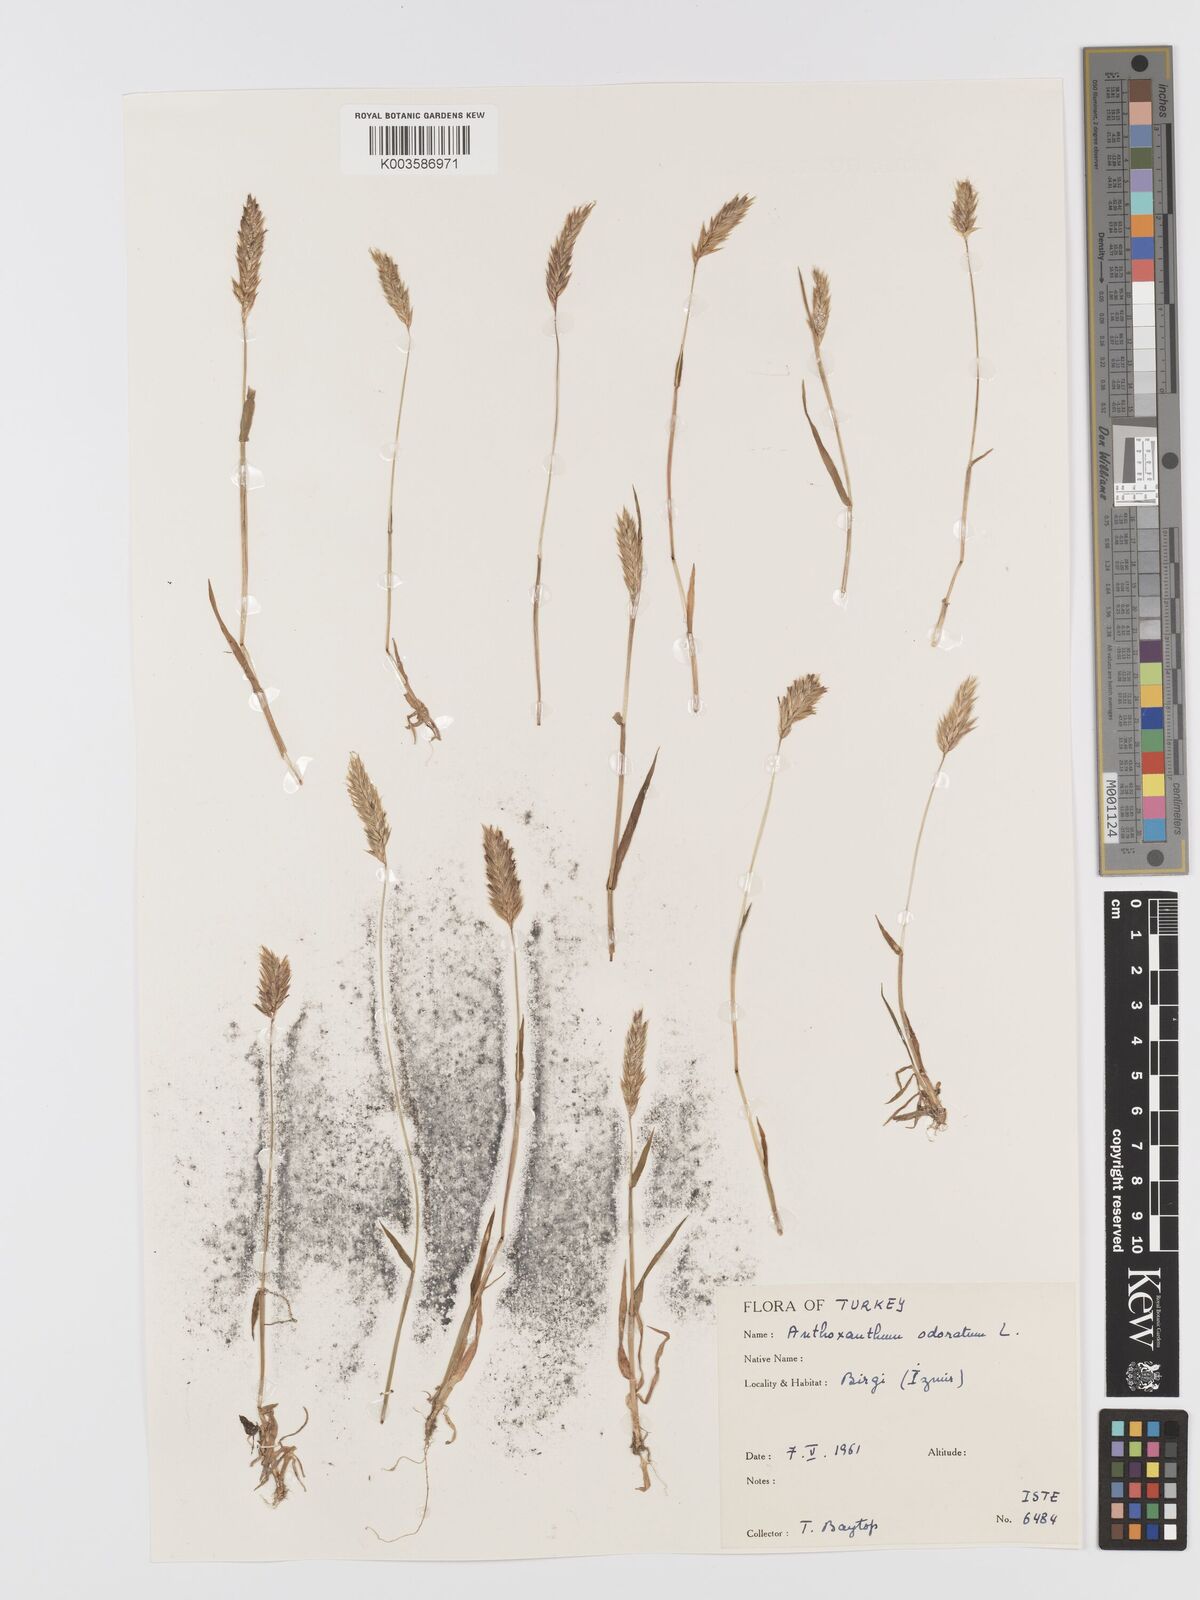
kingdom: Plantae
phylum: Tracheophyta
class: Liliopsida
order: Poales
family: Poaceae
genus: Anthoxanthum
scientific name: Anthoxanthum odoratum
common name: Sweet vernalgrass
